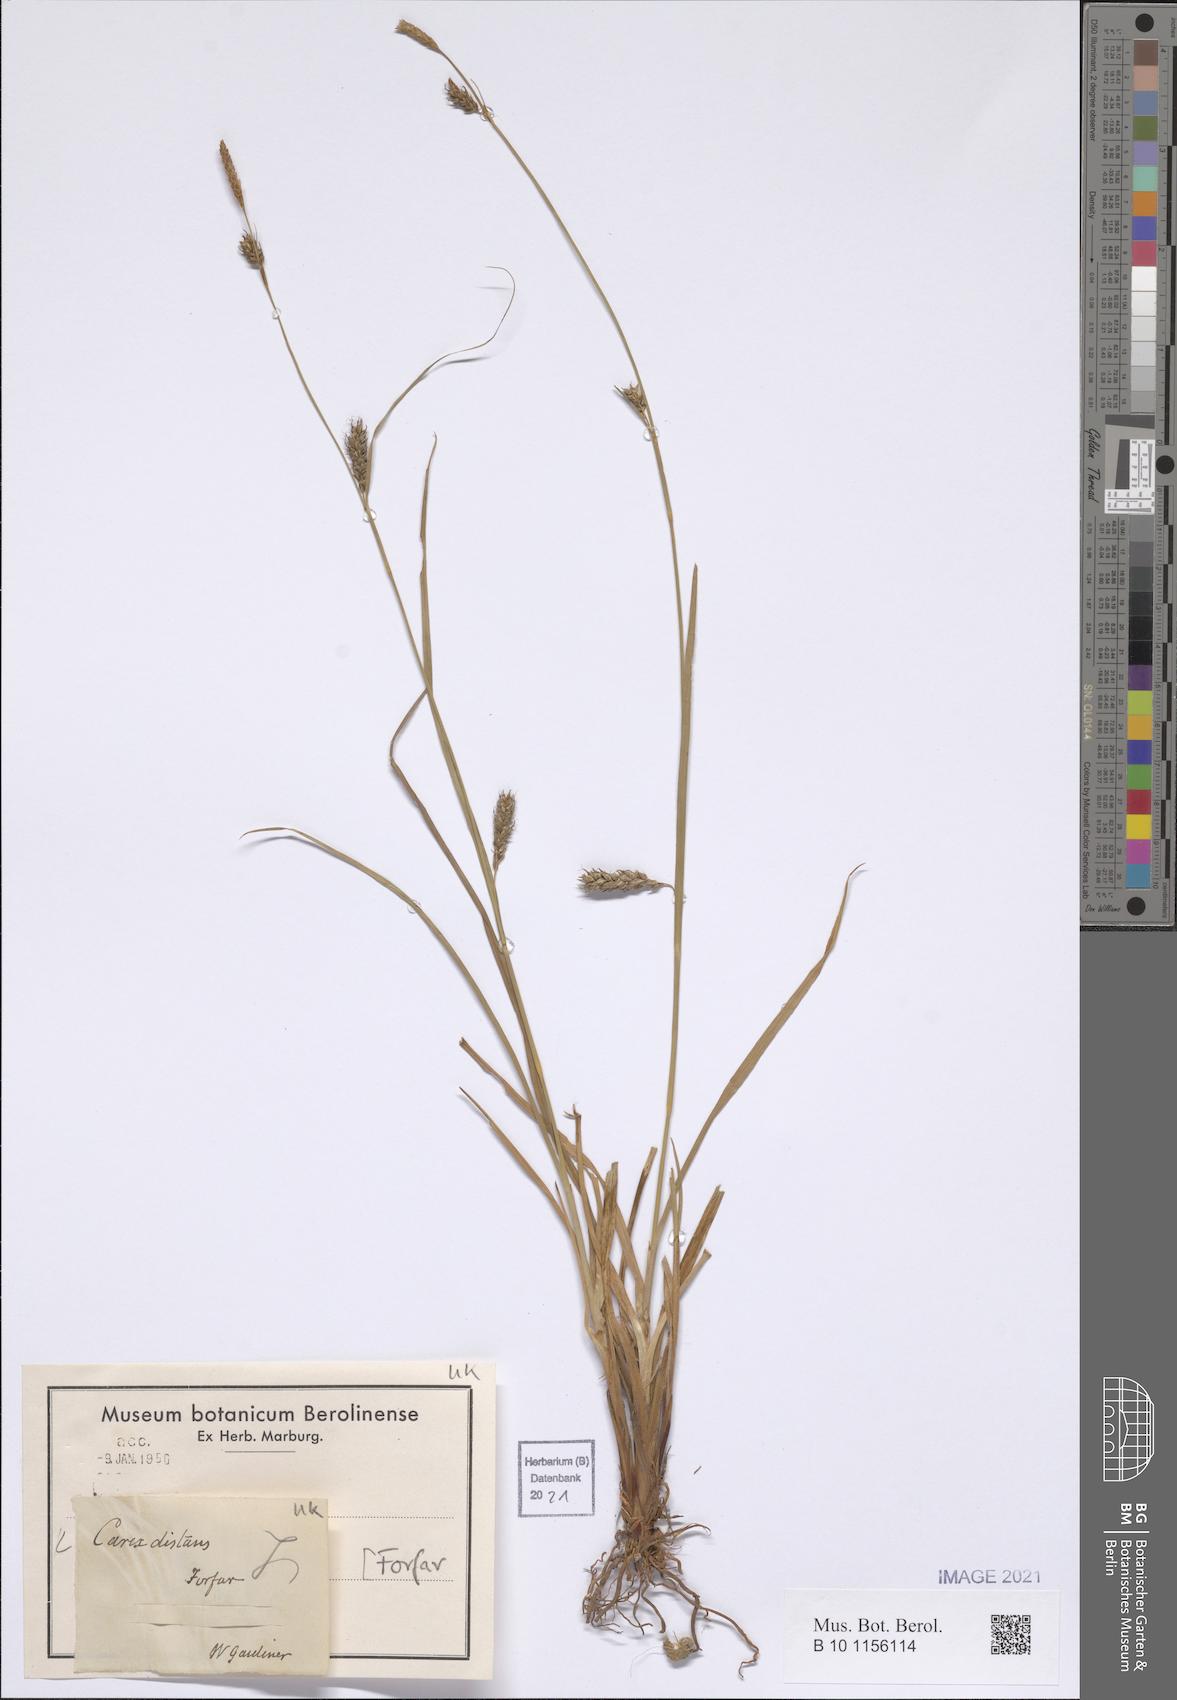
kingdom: Plantae
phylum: Tracheophyta
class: Liliopsida
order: Poales
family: Cyperaceae
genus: Carex
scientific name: Carex distans
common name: Distant sedge
